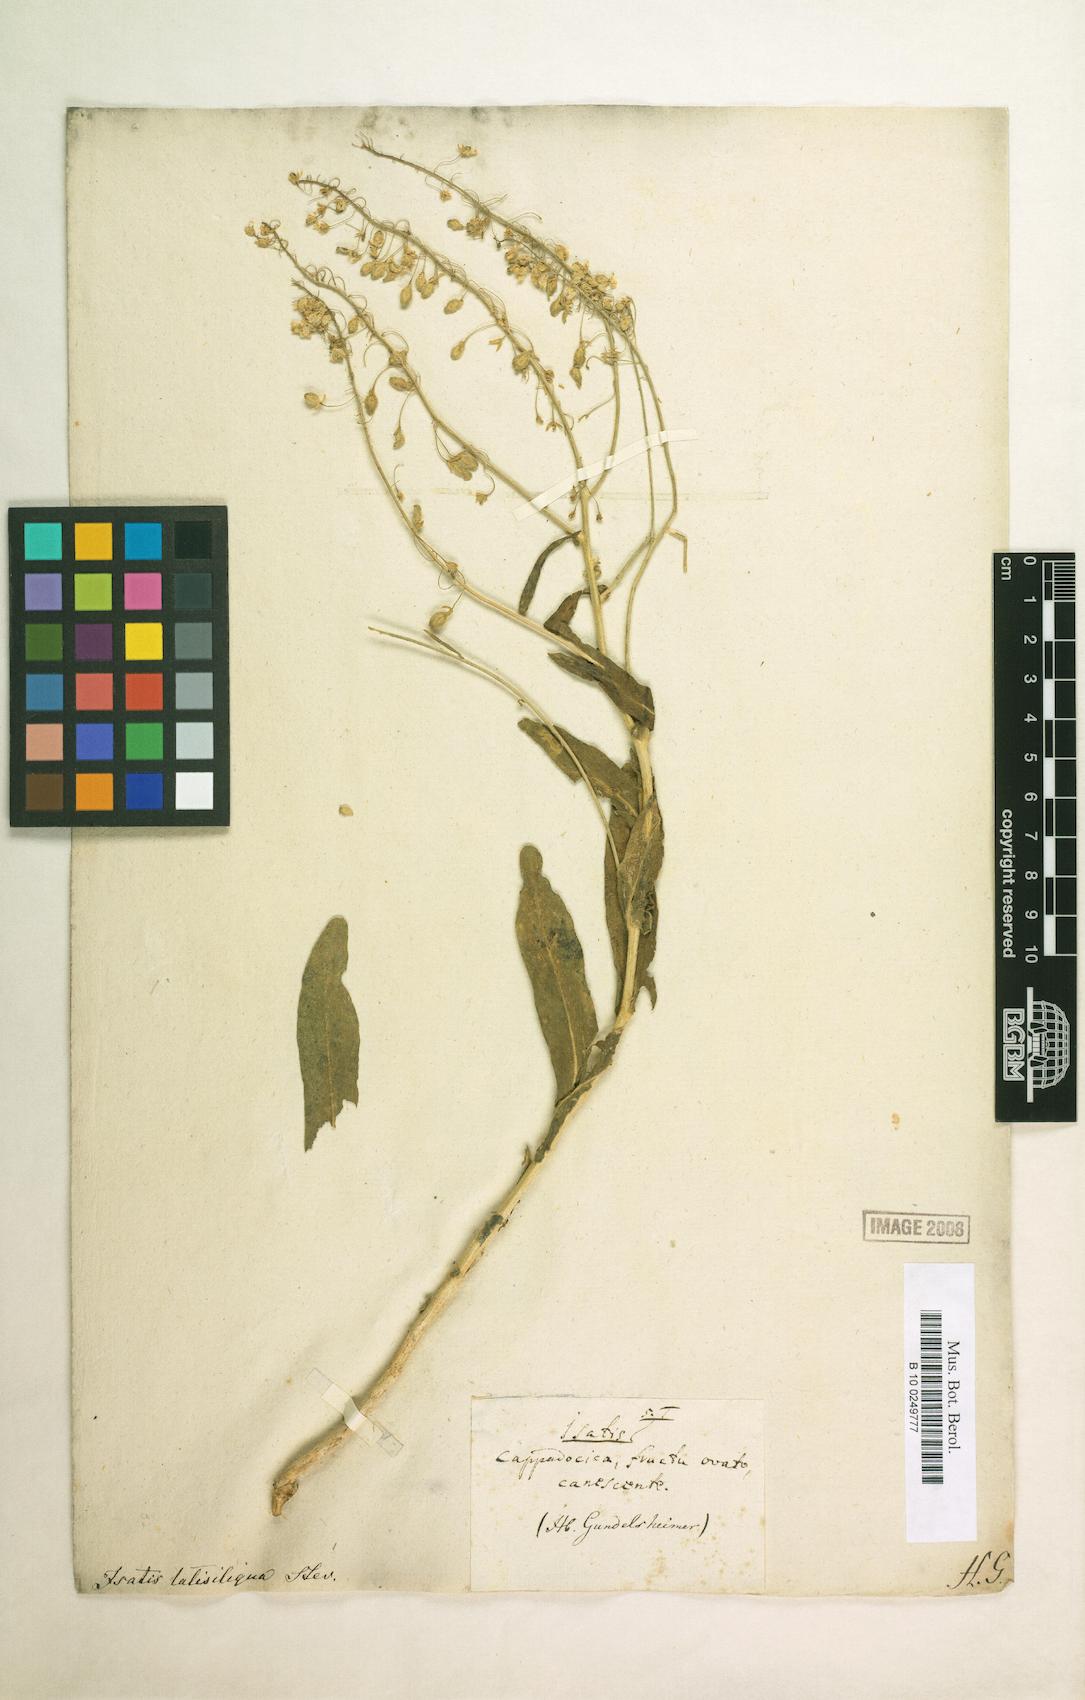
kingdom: Plantae
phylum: Tracheophyta
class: Magnoliopsida
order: Brassicales
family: Brassicaceae
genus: Isatis
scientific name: Isatis latisiliqua
